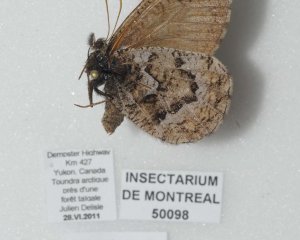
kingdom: Animalia
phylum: Arthropoda
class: Insecta
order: Lepidoptera
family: Nymphalidae
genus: Oeneis
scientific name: Oeneis bore
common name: White-veined Arctic
